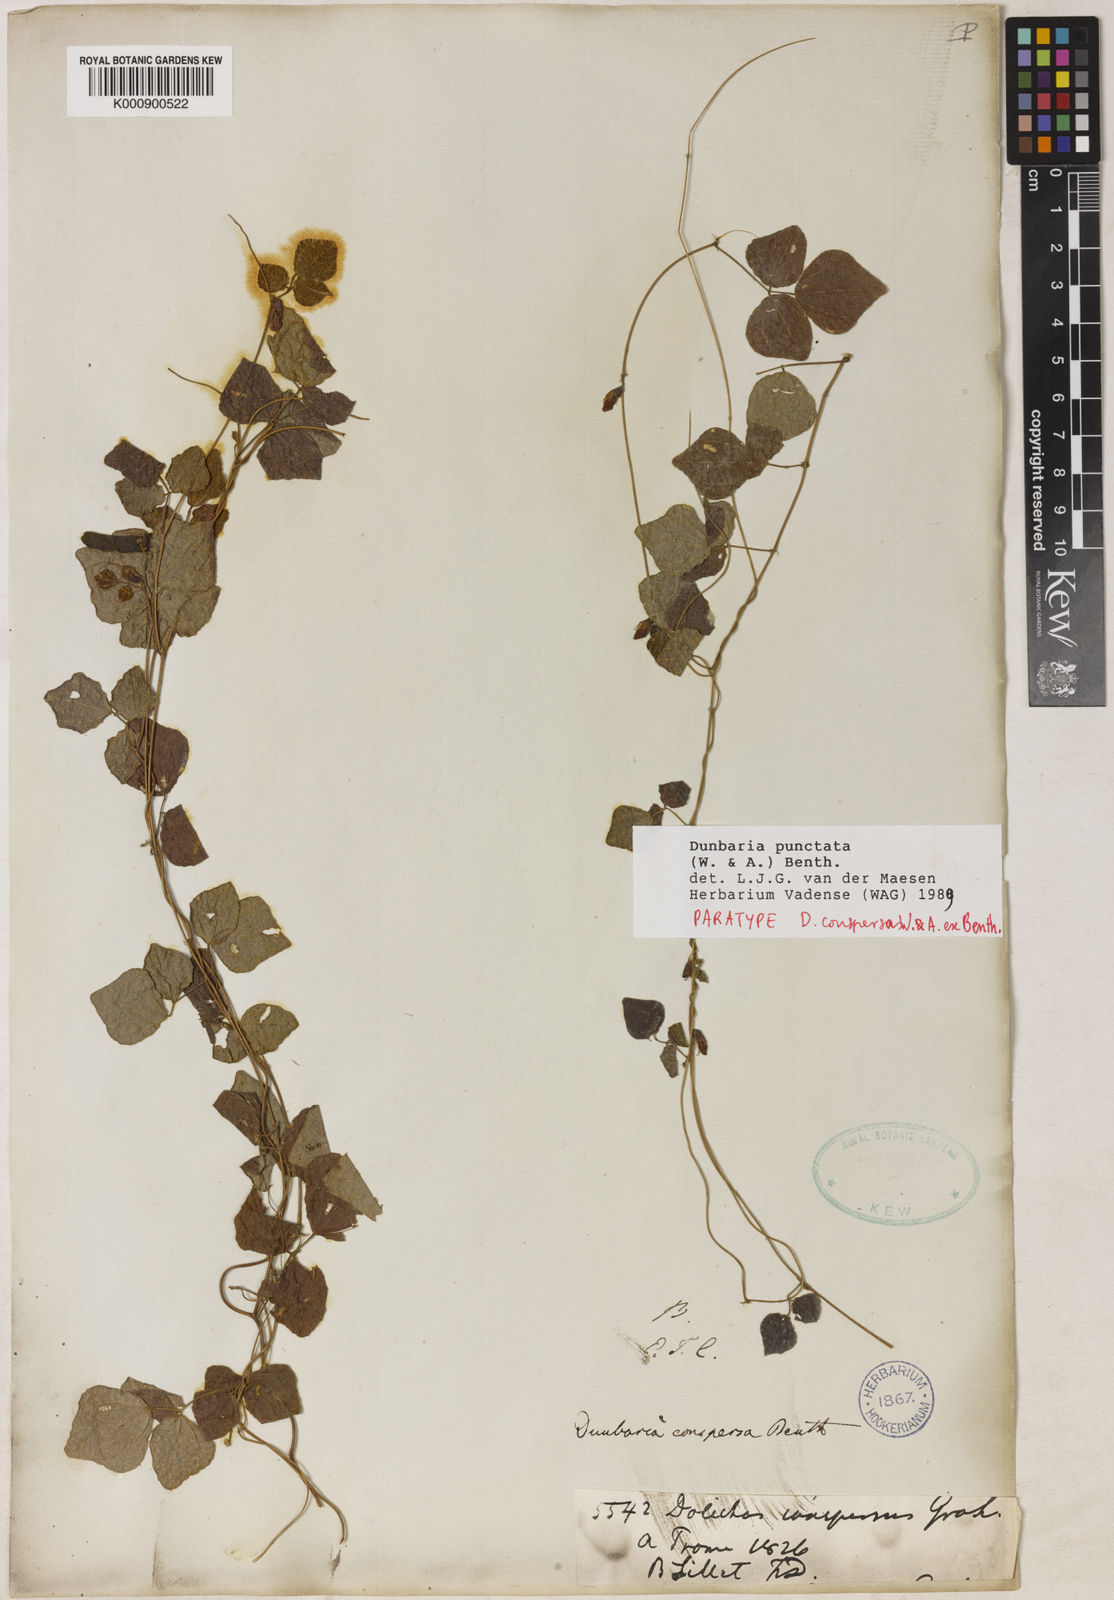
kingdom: Plantae
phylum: Tracheophyta
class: Magnoliopsida
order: Fabales
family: Fabaceae
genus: Dunbaria
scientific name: Dunbaria punctata
